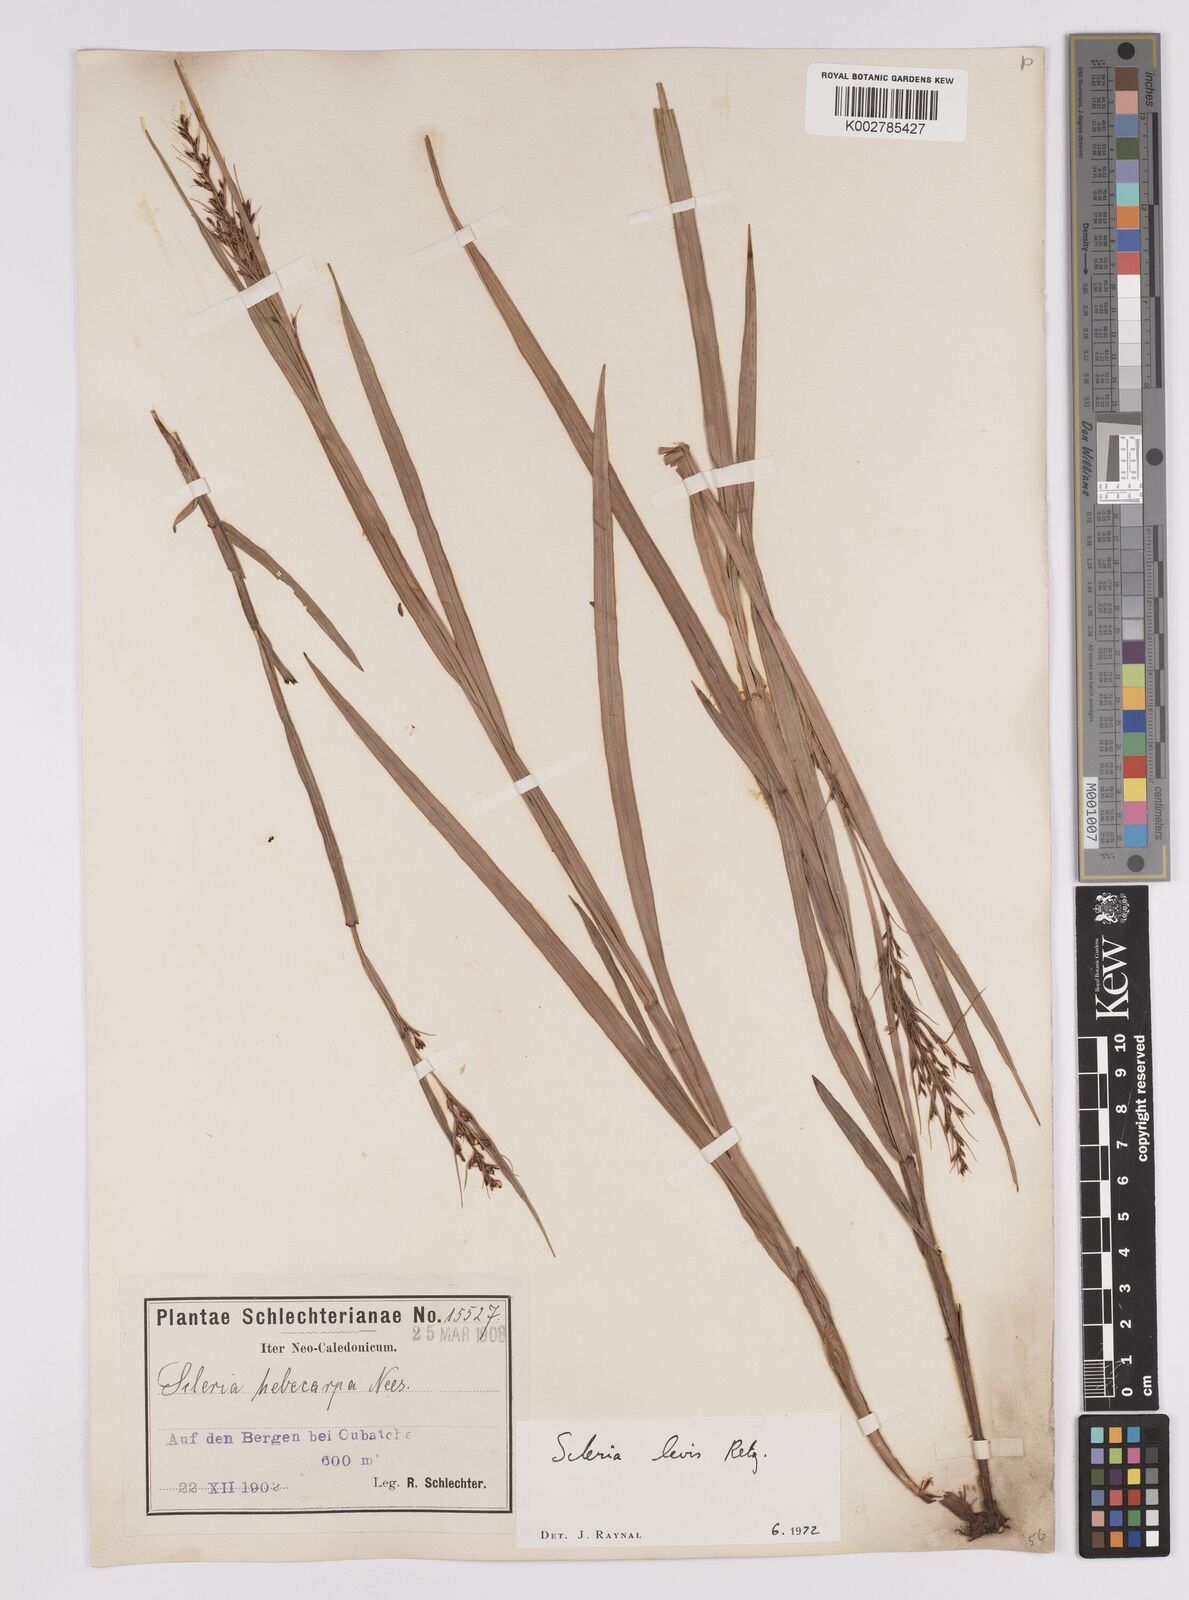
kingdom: Plantae
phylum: Tracheophyta
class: Liliopsida
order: Poales
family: Cyperaceae
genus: Scleria
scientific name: Scleria levis
